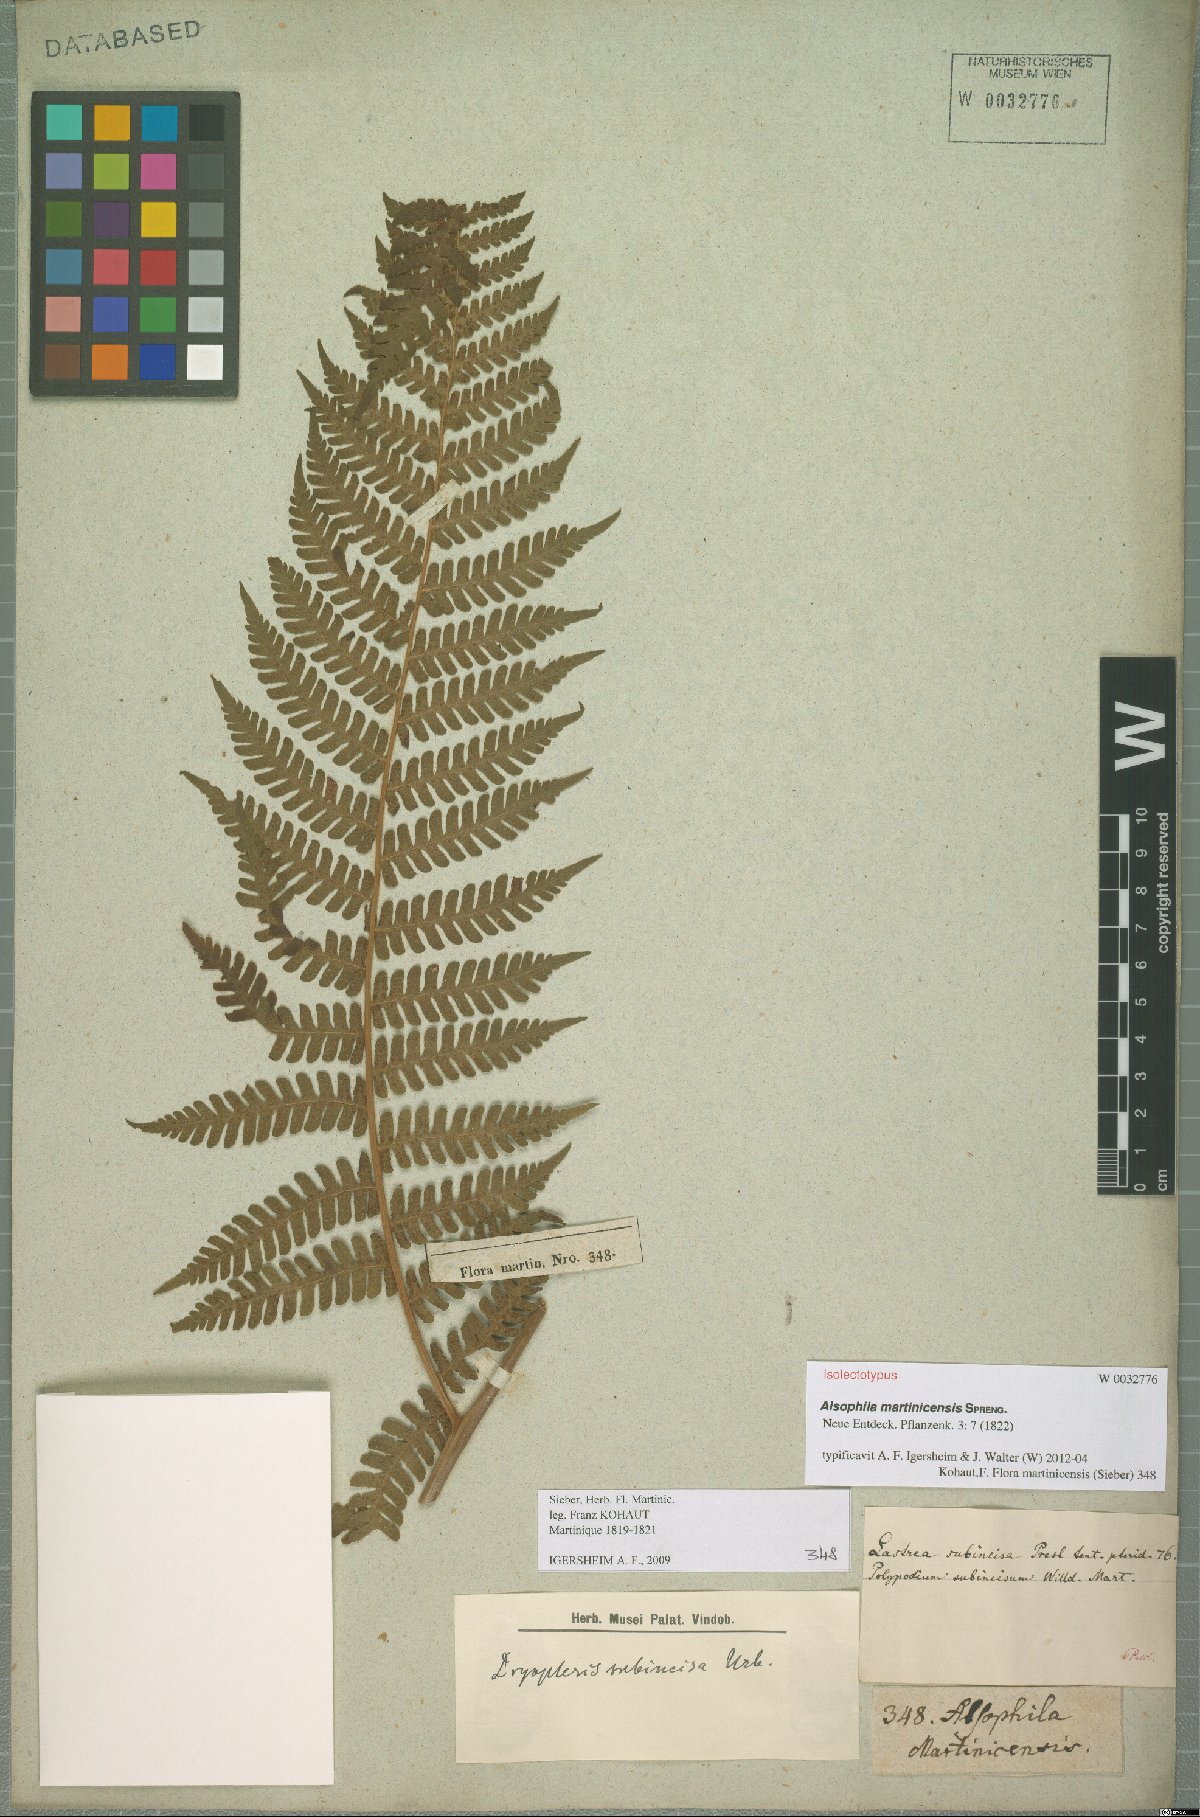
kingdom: Plantae
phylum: Tracheophyta
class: Polypodiopsida
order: Polypodiales
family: Dryopteridaceae
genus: Megalastrum
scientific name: Megalastrum martinicense
